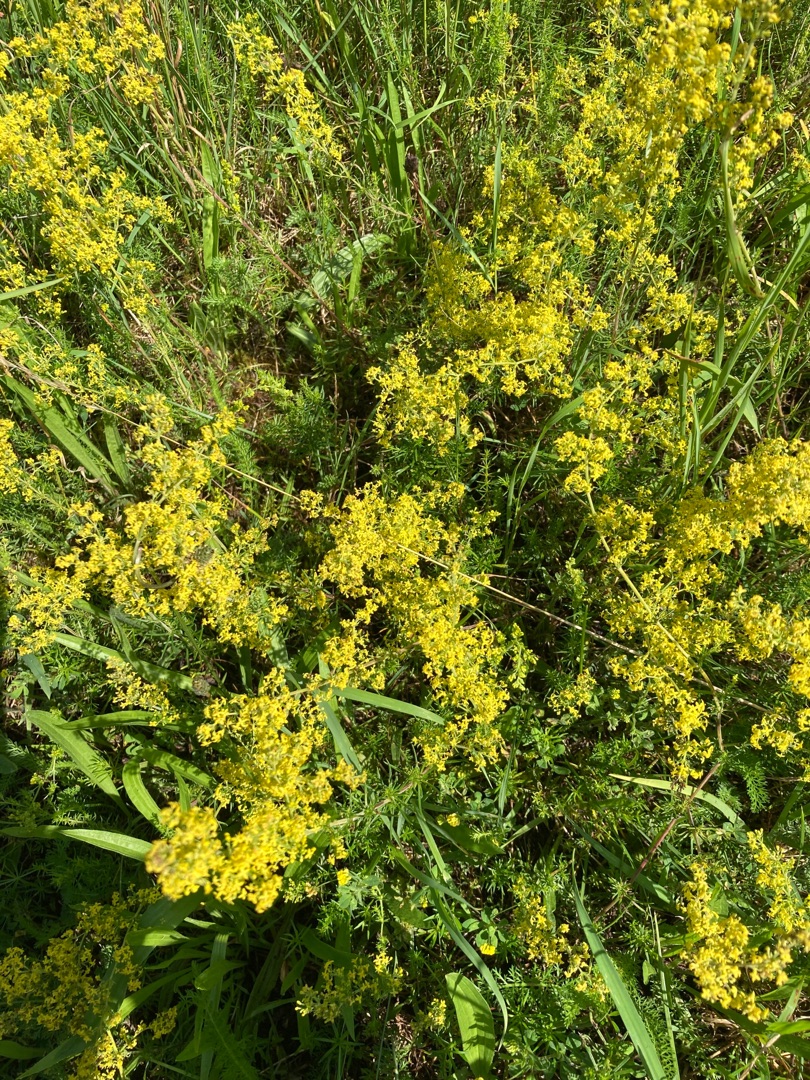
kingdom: Plantae
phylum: Tracheophyta
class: Magnoliopsida
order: Gentianales
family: Rubiaceae
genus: Galium
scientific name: Galium verum
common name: Gul snerre
